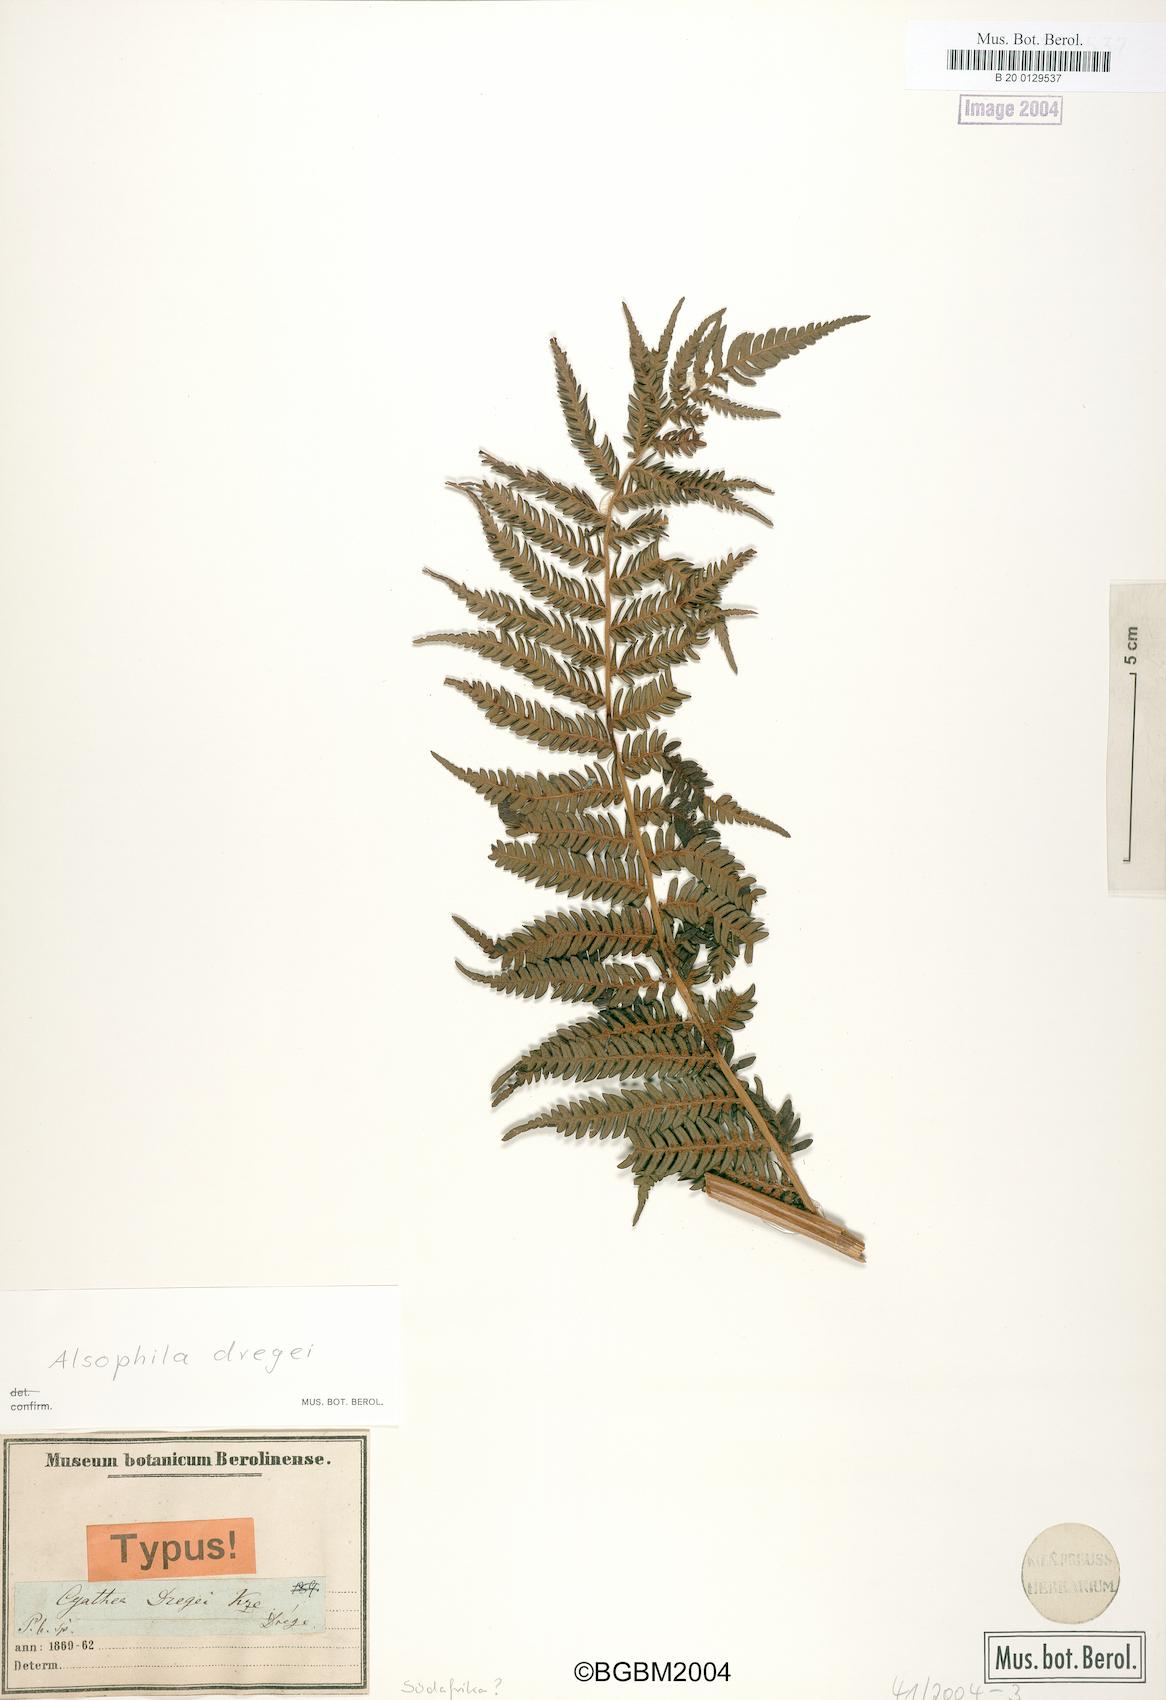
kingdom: Plantae
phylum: Tracheophyta
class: Polypodiopsida
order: Cyatheales
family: Cyatheaceae
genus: Alsophila
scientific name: Alsophila dregei
